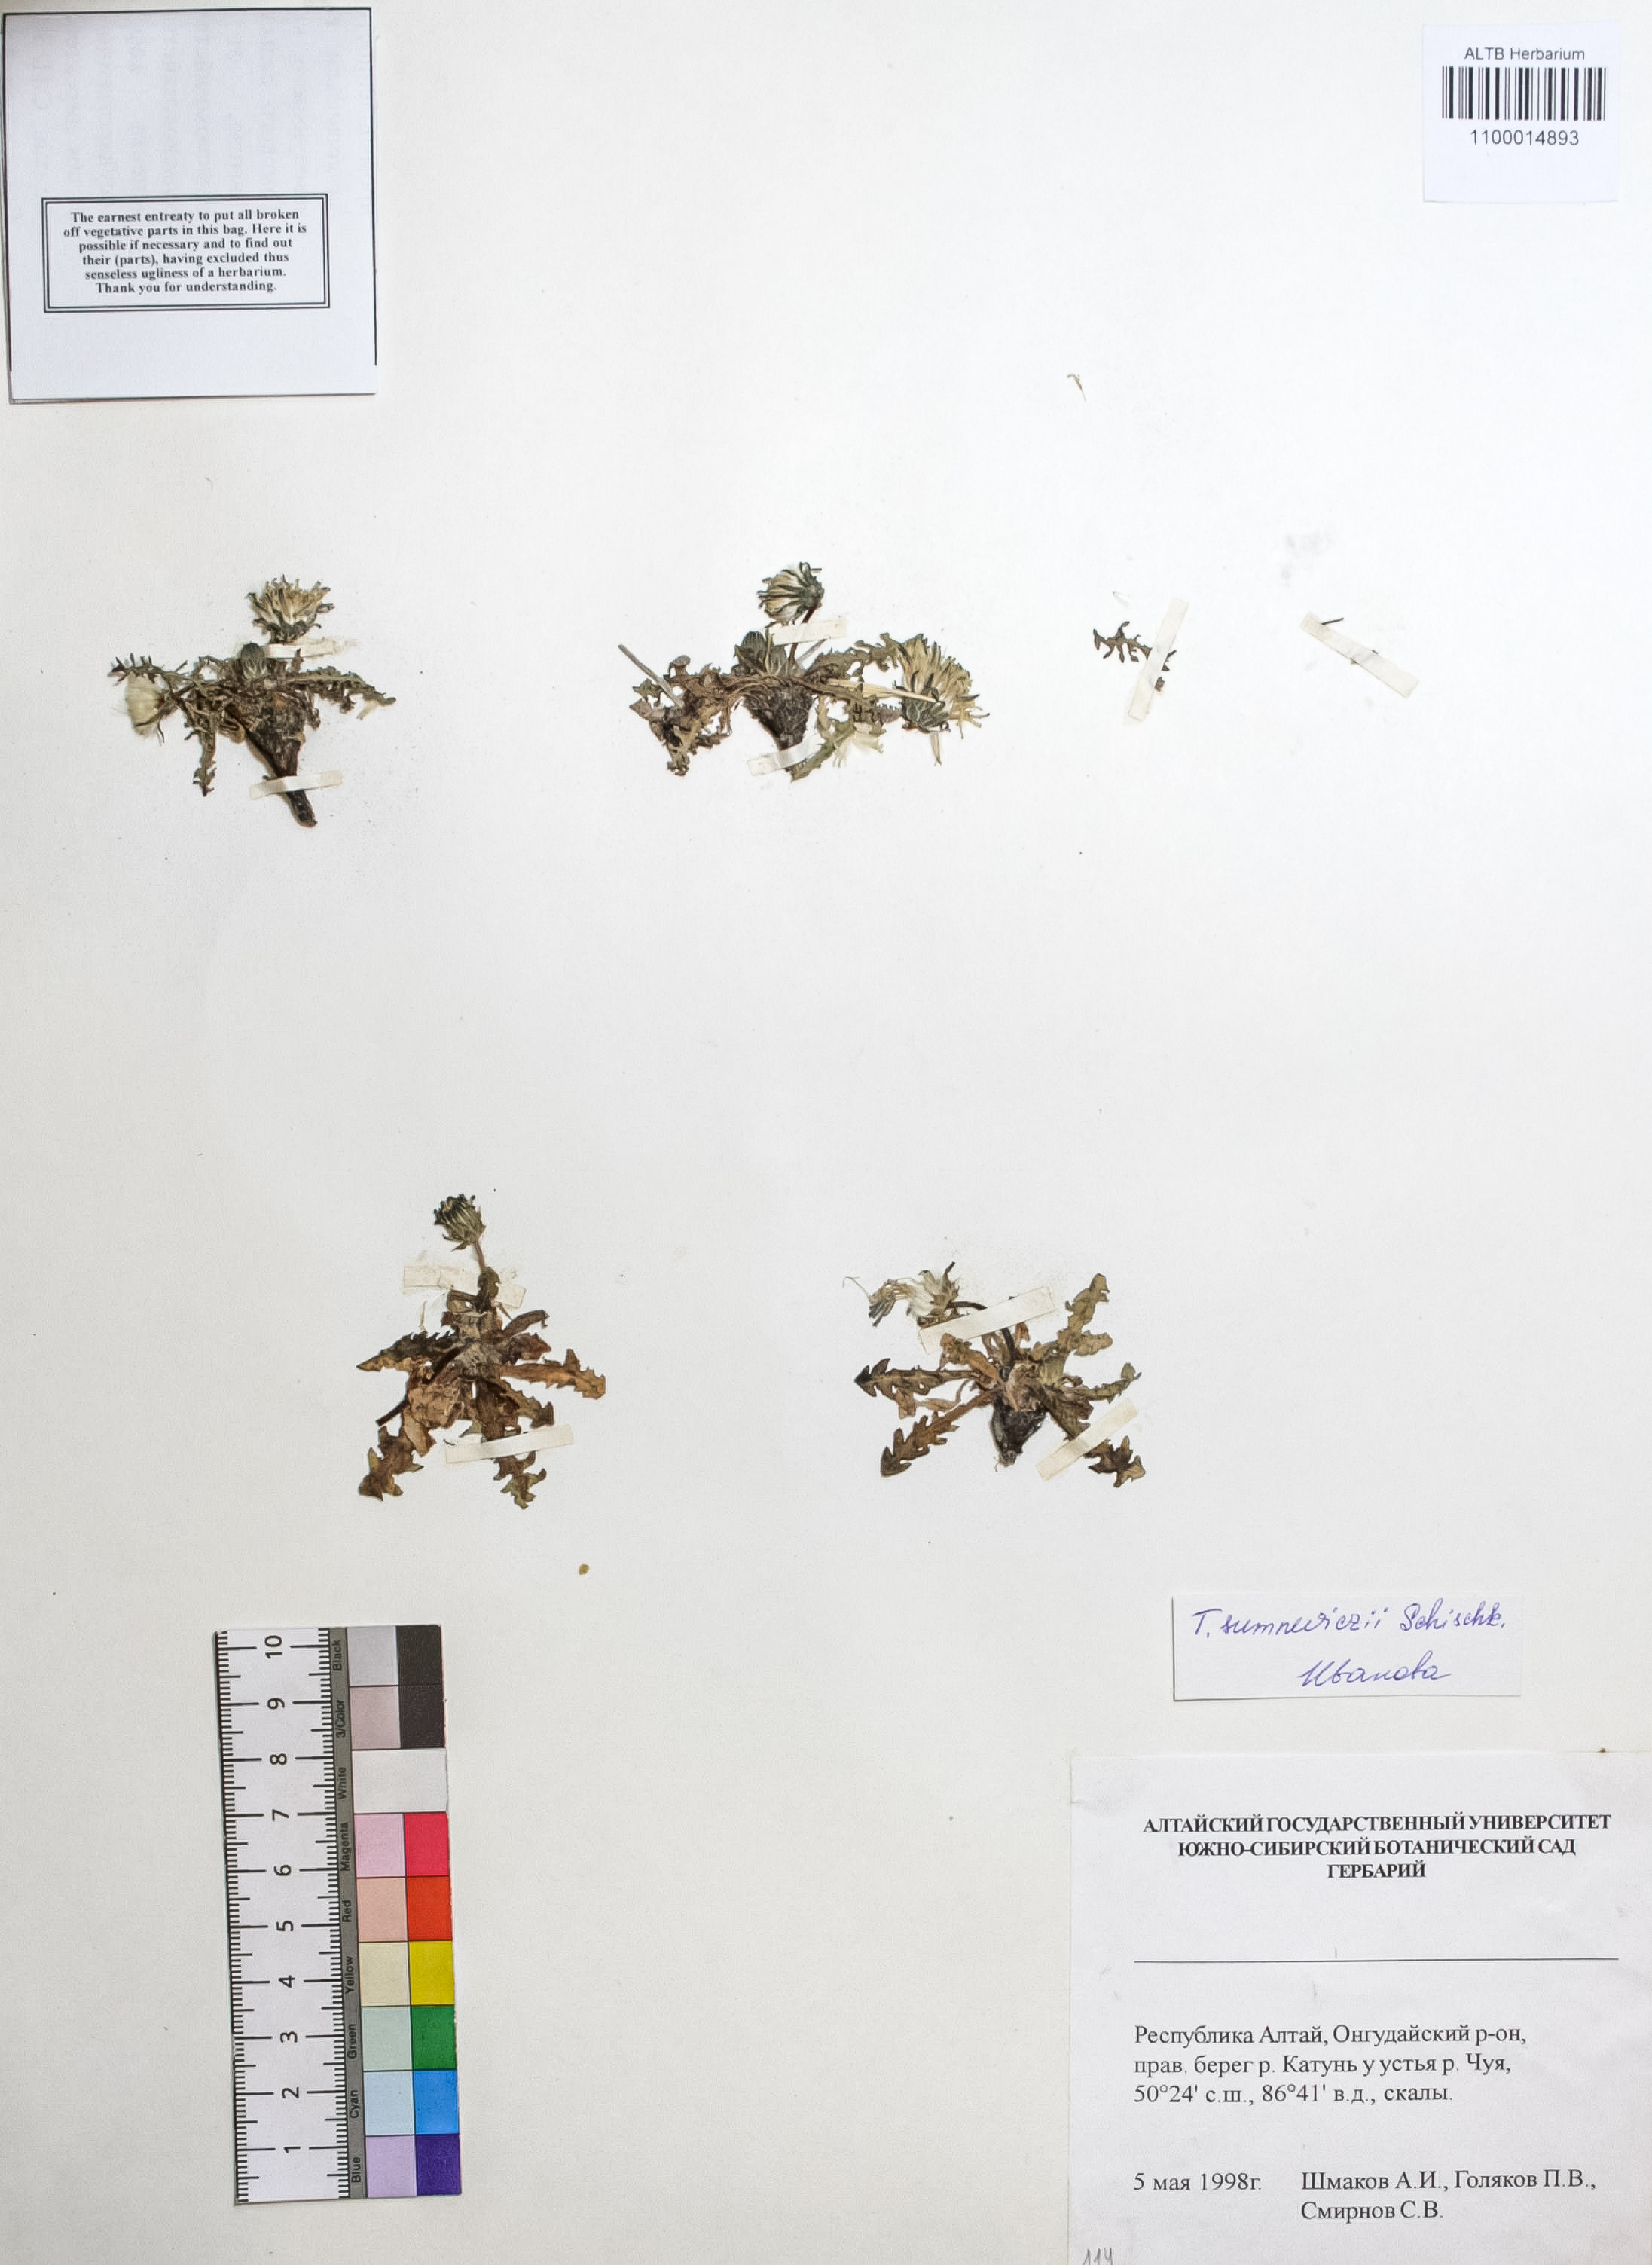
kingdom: Plantae
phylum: Tracheophyta
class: Magnoliopsida
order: Asterales
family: Asteraceae
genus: Taraxacum
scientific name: Taraxacum sumneviczii
